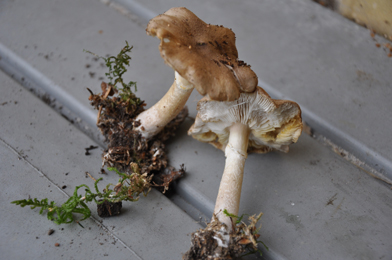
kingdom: Fungi
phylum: Basidiomycota
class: Agaricomycetes
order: Agaricales
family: Tricholomataceae
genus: Tricholoma
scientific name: Tricholoma cingulatum
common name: ring-ridderhat
